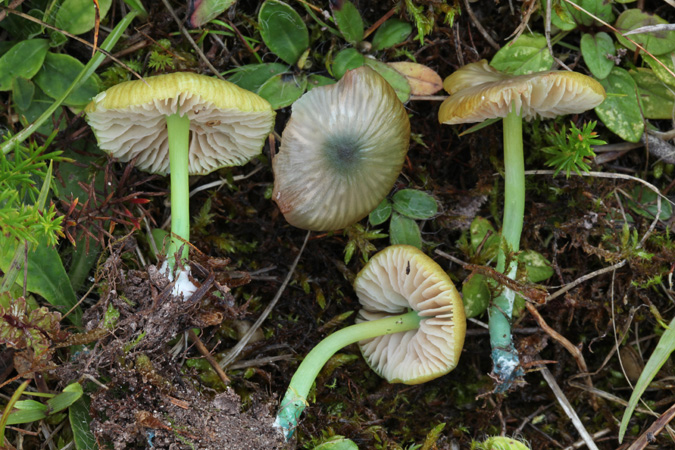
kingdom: Fungi
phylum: Basidiomycota
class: Agaricomycetes
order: Agaricales
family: Entolomataceae
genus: Entoloma
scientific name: Entoloma incanum
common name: grøngul rødblad
